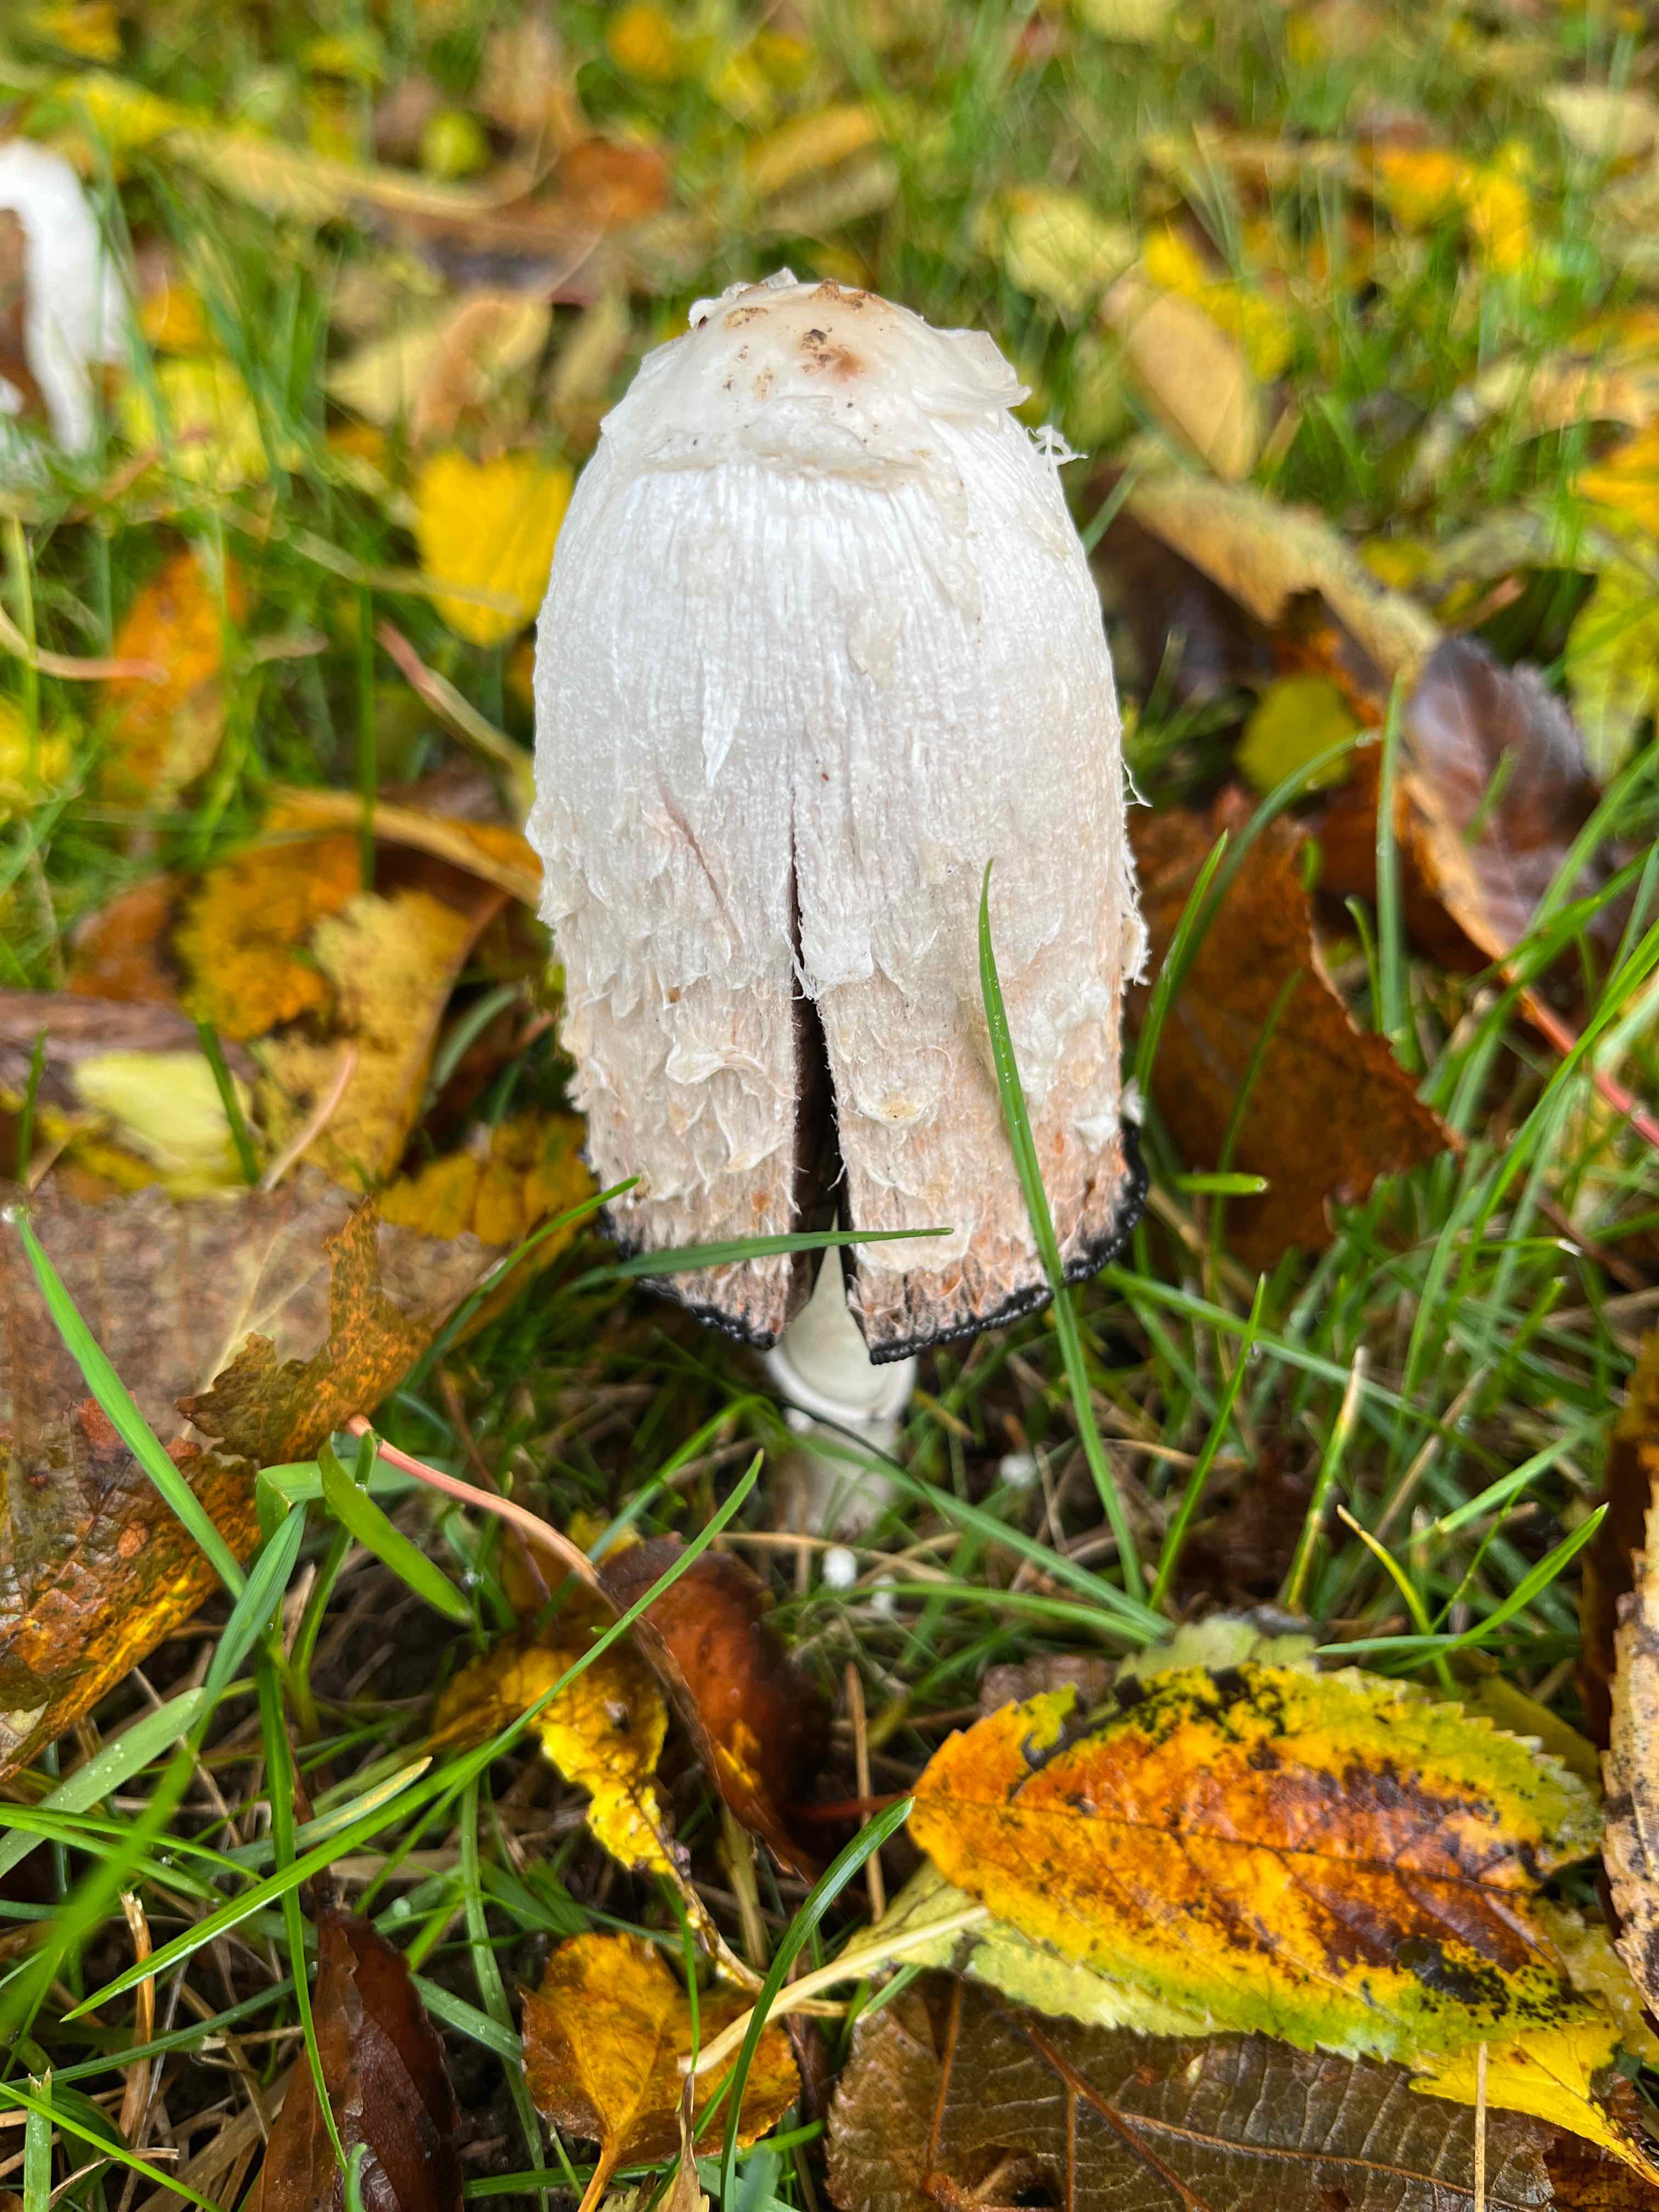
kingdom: Fungi
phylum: Basidiomycota
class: Agaricomycetes
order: Agaricales
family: Agaricaceae
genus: Coprinus
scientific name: Coprinus comatus
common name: stor parykhat
